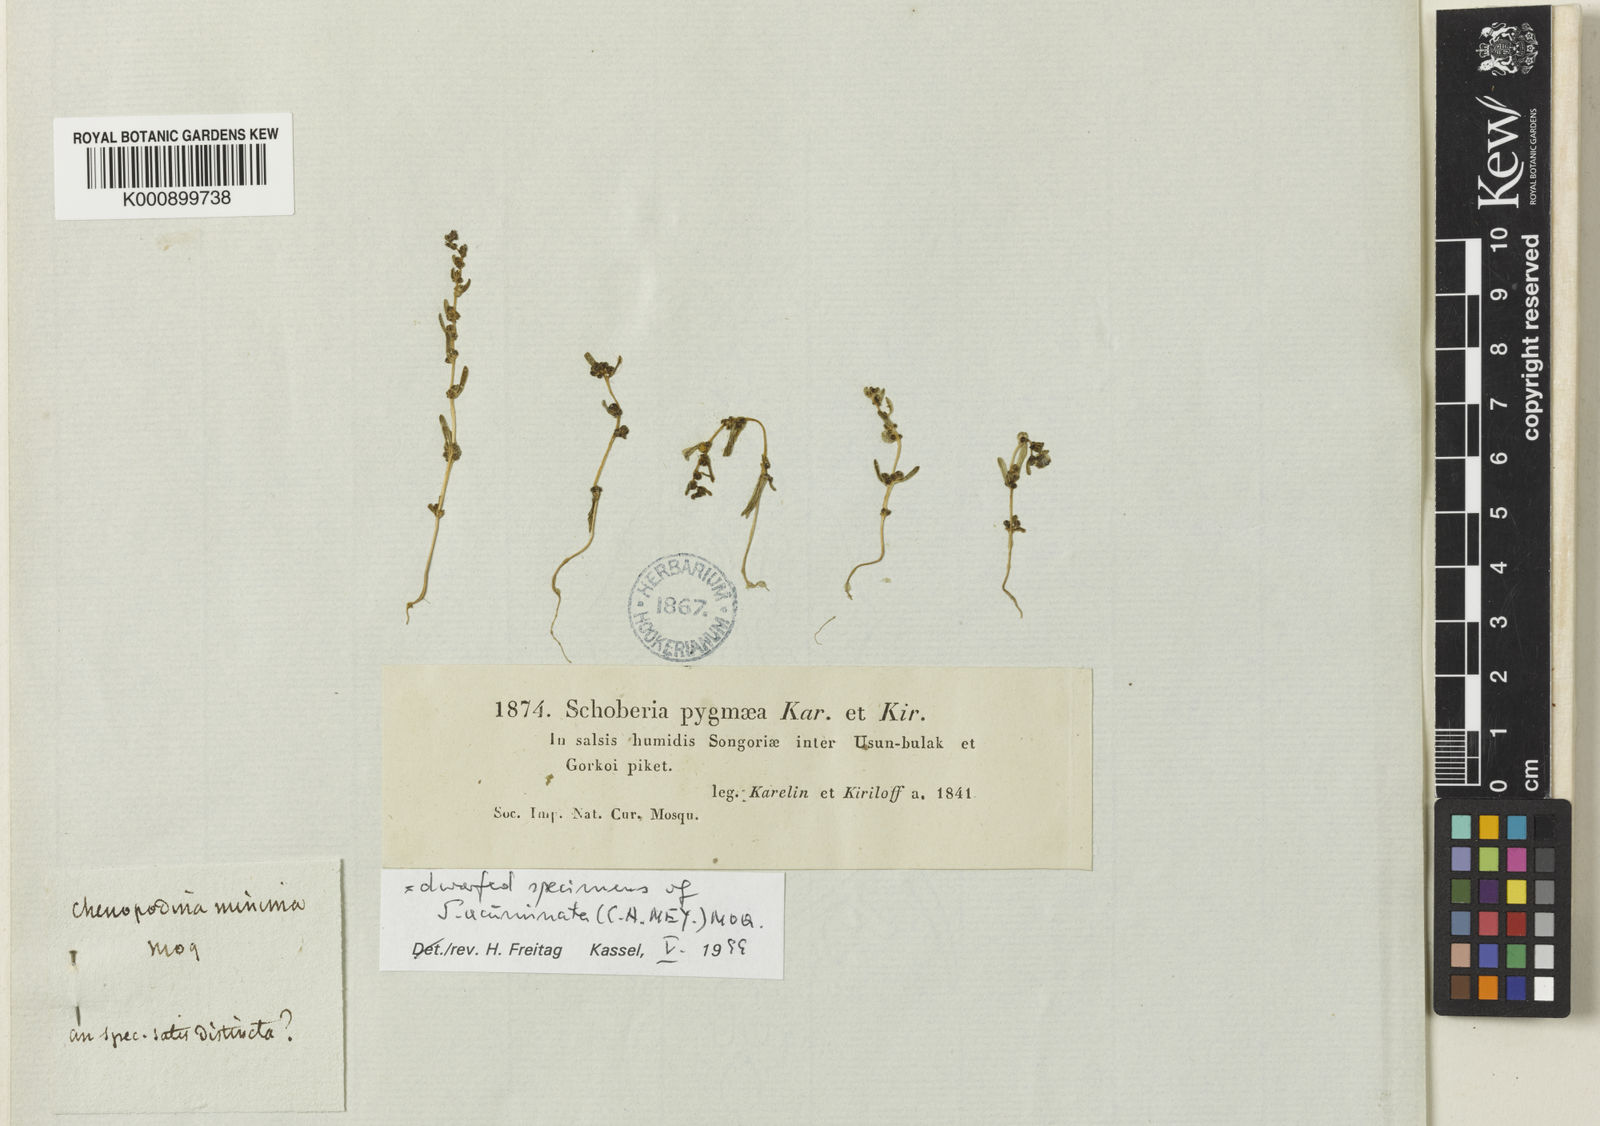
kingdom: Plantae
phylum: Tracheophyta
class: Magnoliopsida
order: Caryophyllales
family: Amaranthaceae
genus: Suaeda
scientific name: Suaeda microsperma
